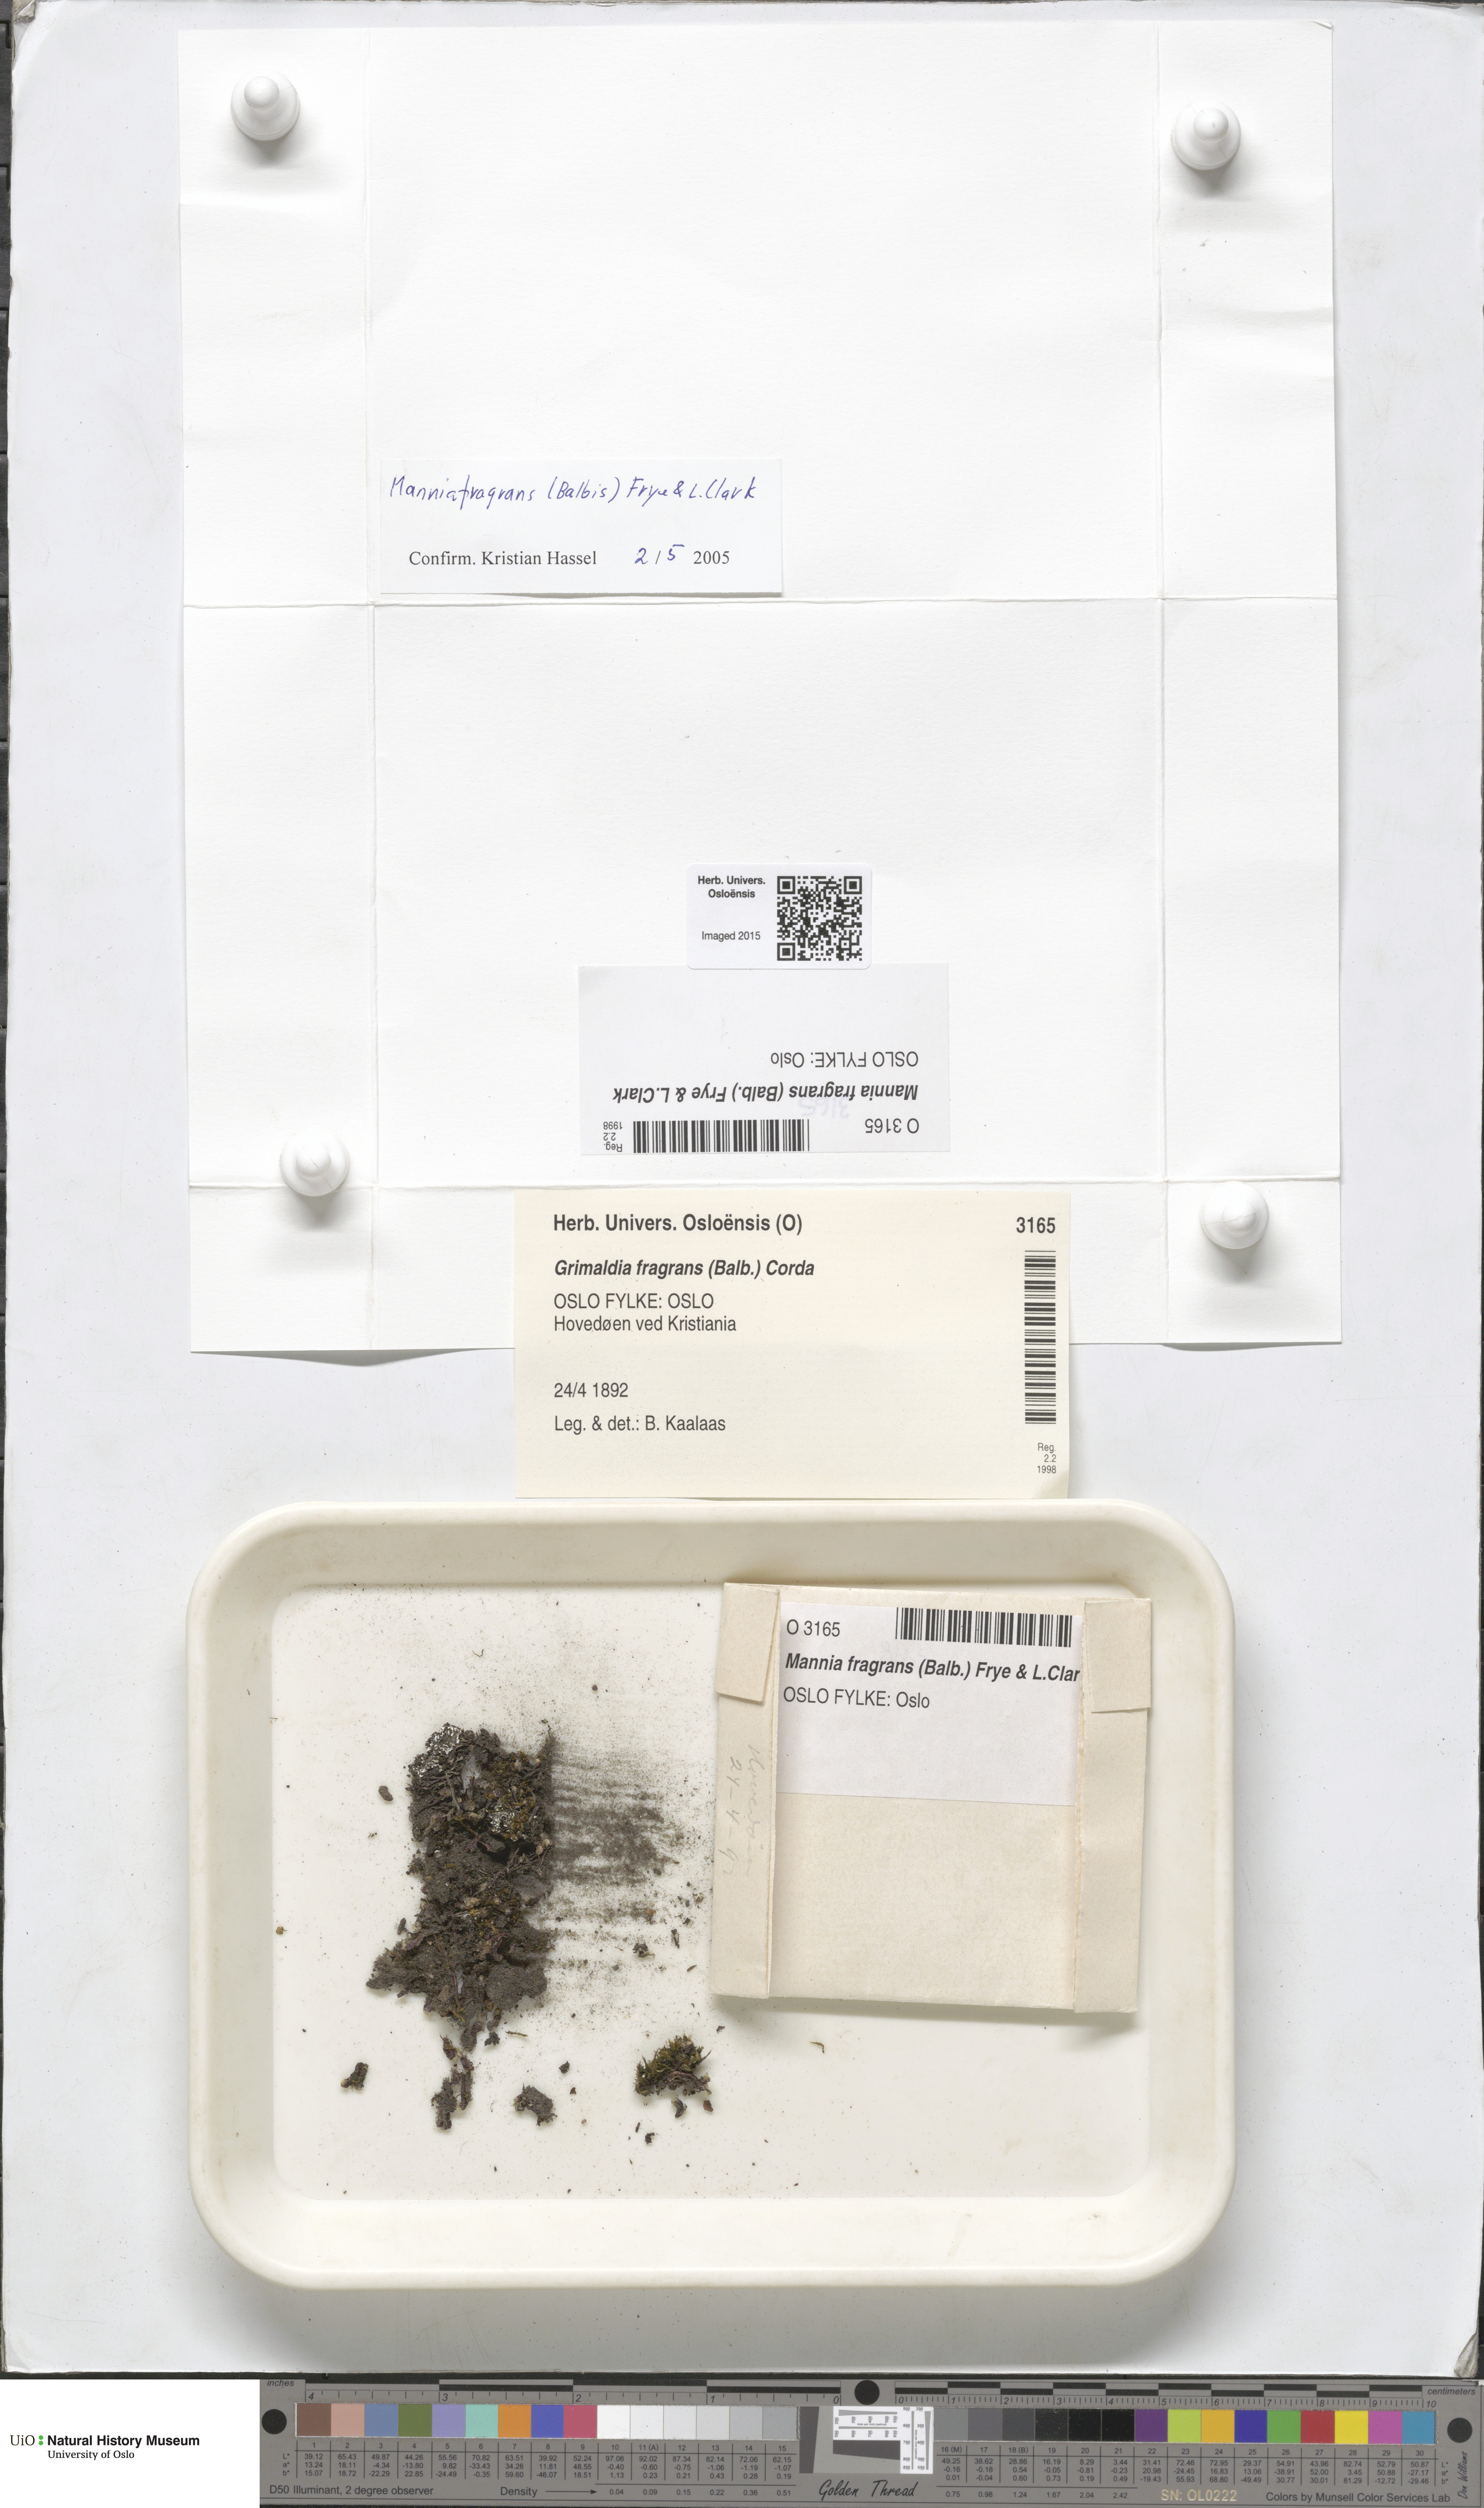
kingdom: Plantae
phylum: Marchantiophyta
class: Marchantiopsida
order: Marchantiales
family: Aytoniaceae
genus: Mannia
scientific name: Mannia fragrans
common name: Fragrant macewort
